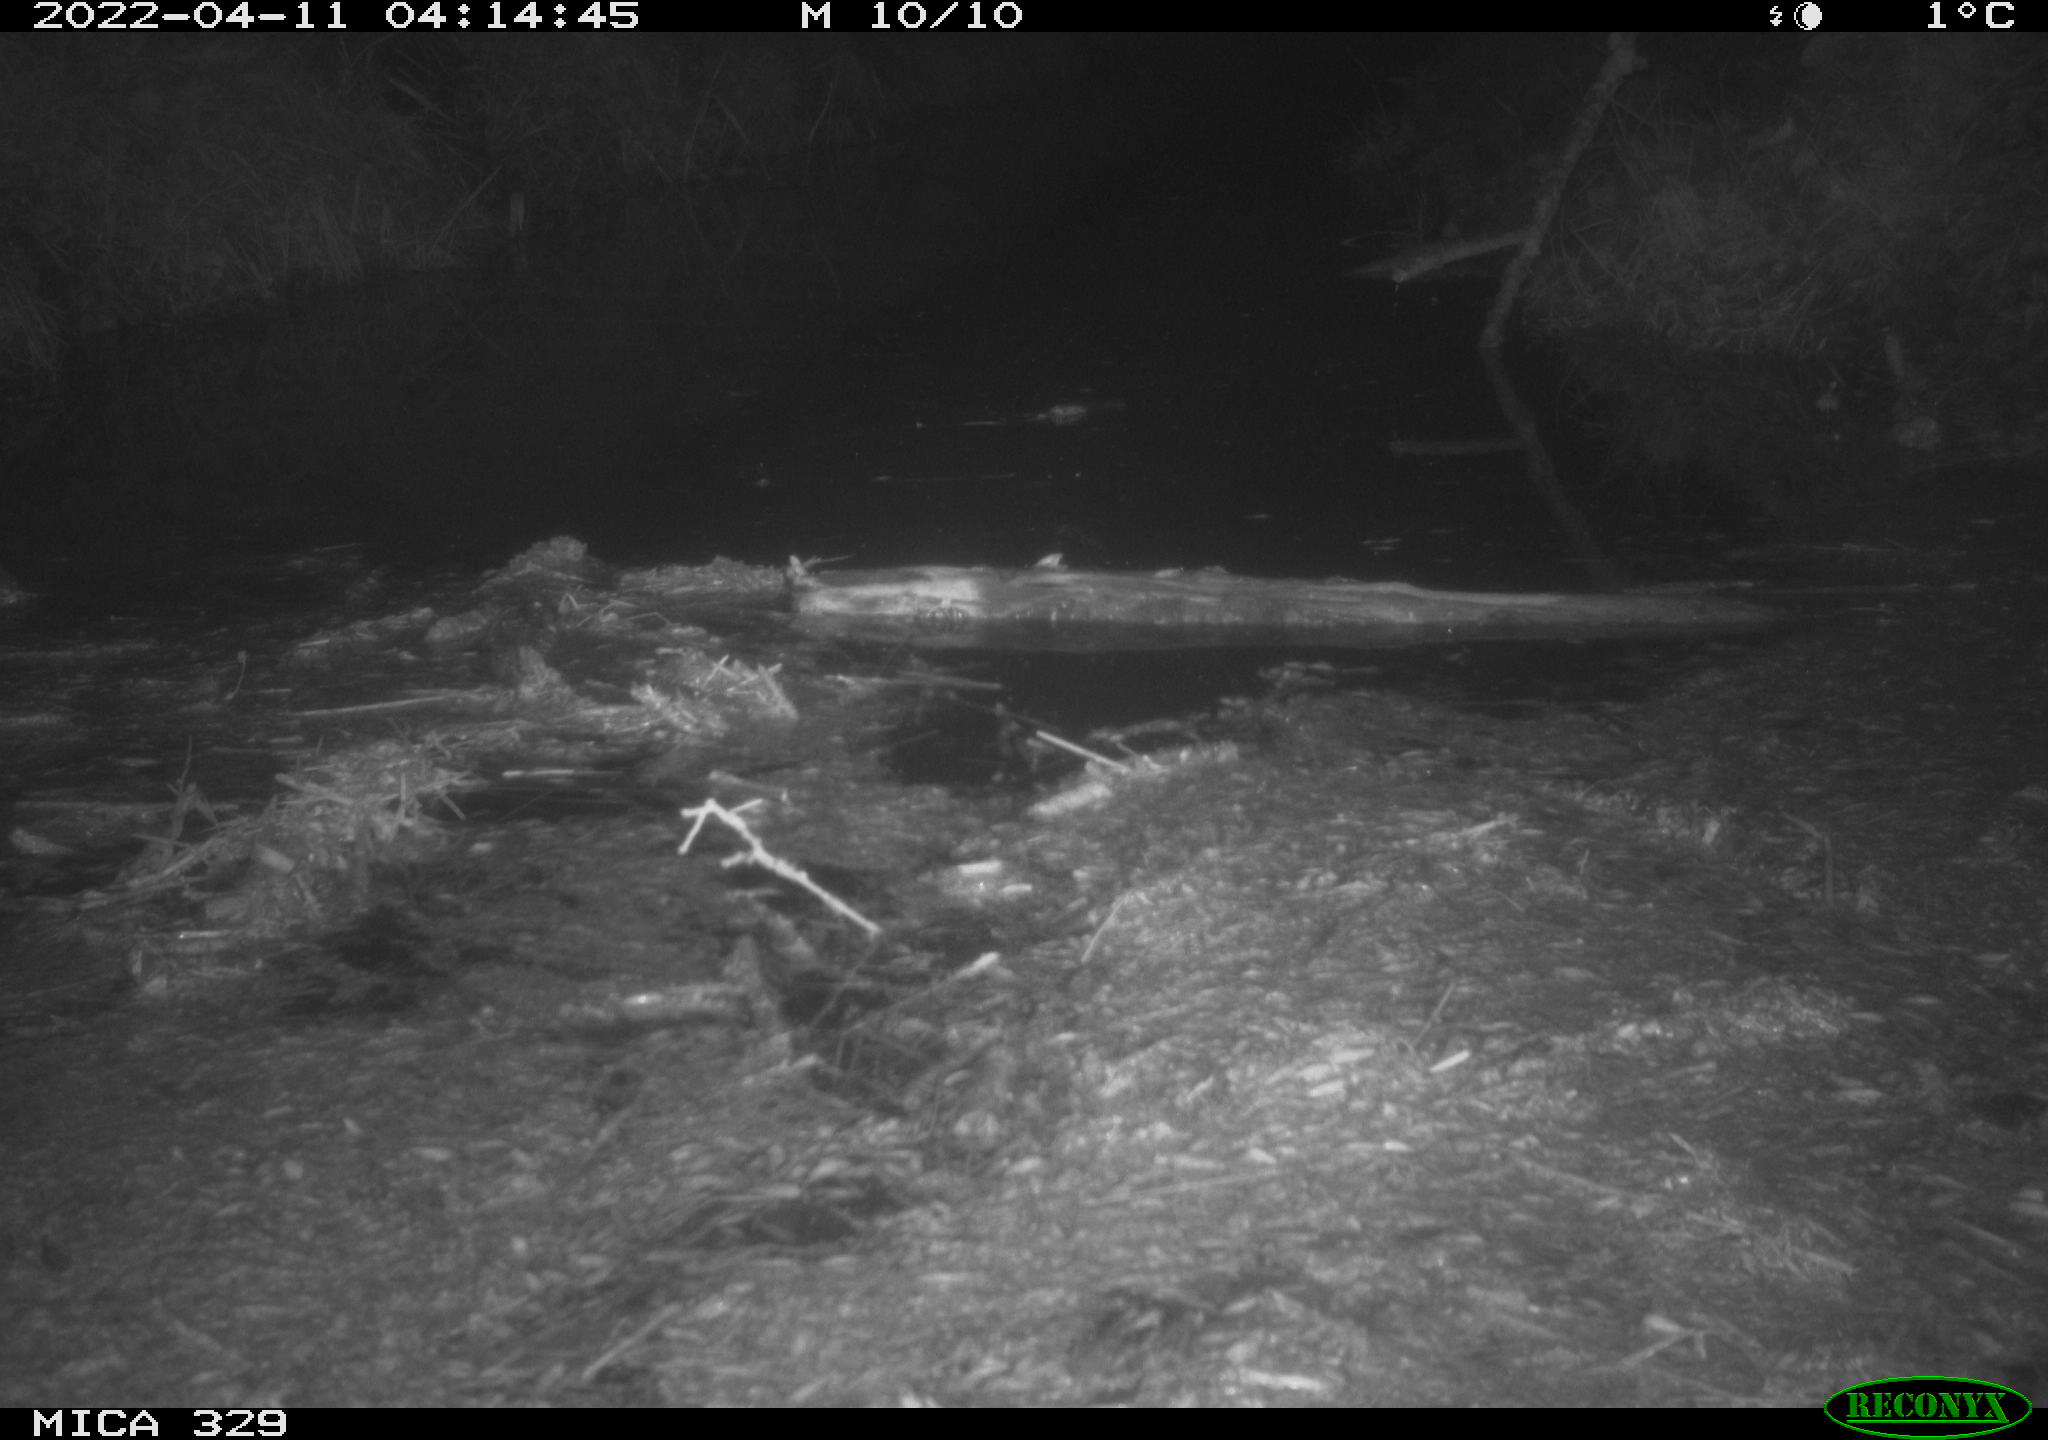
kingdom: Animalia
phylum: Chordata
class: Mammalia
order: Rodentia
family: Cricetidae
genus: Ondatra
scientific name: Ondatra zibethicus
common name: Muskrat
